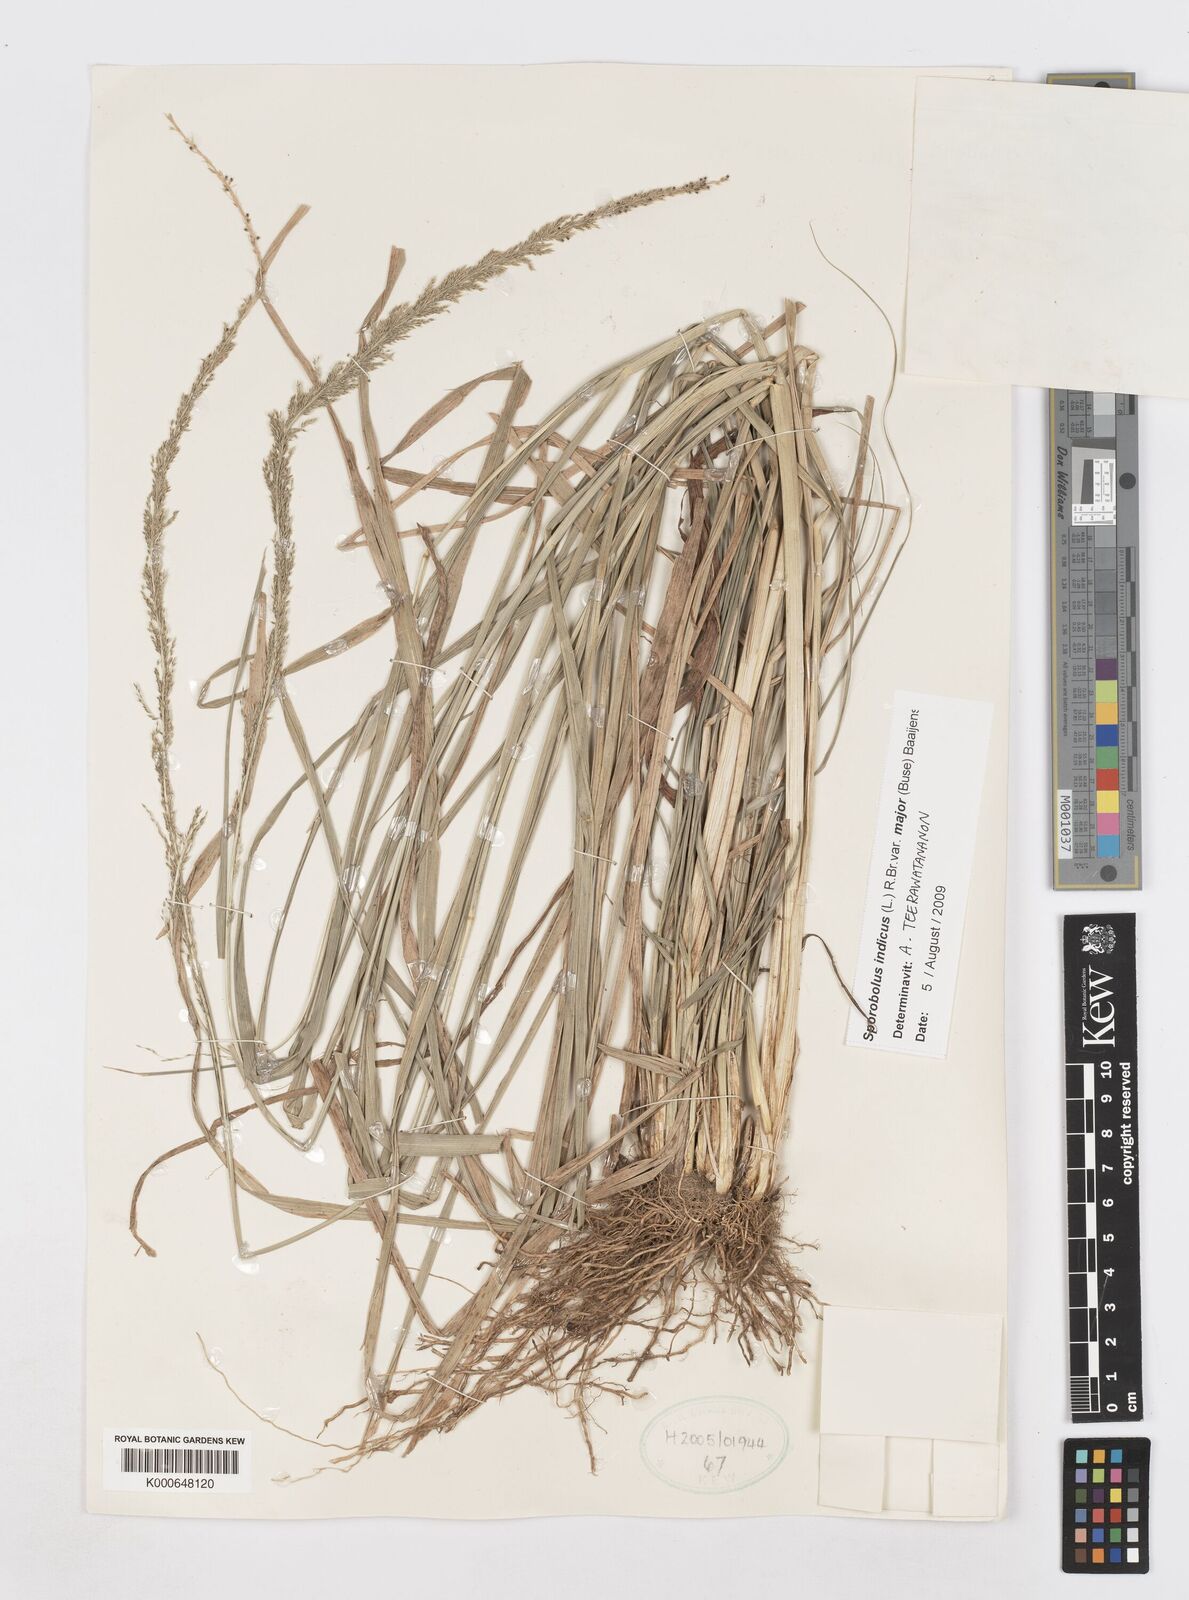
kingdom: Plantae
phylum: Tracheophyta
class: Liliopsida
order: Poales
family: Poaceae
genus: Sporobolus
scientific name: Sporobolus fertilis
